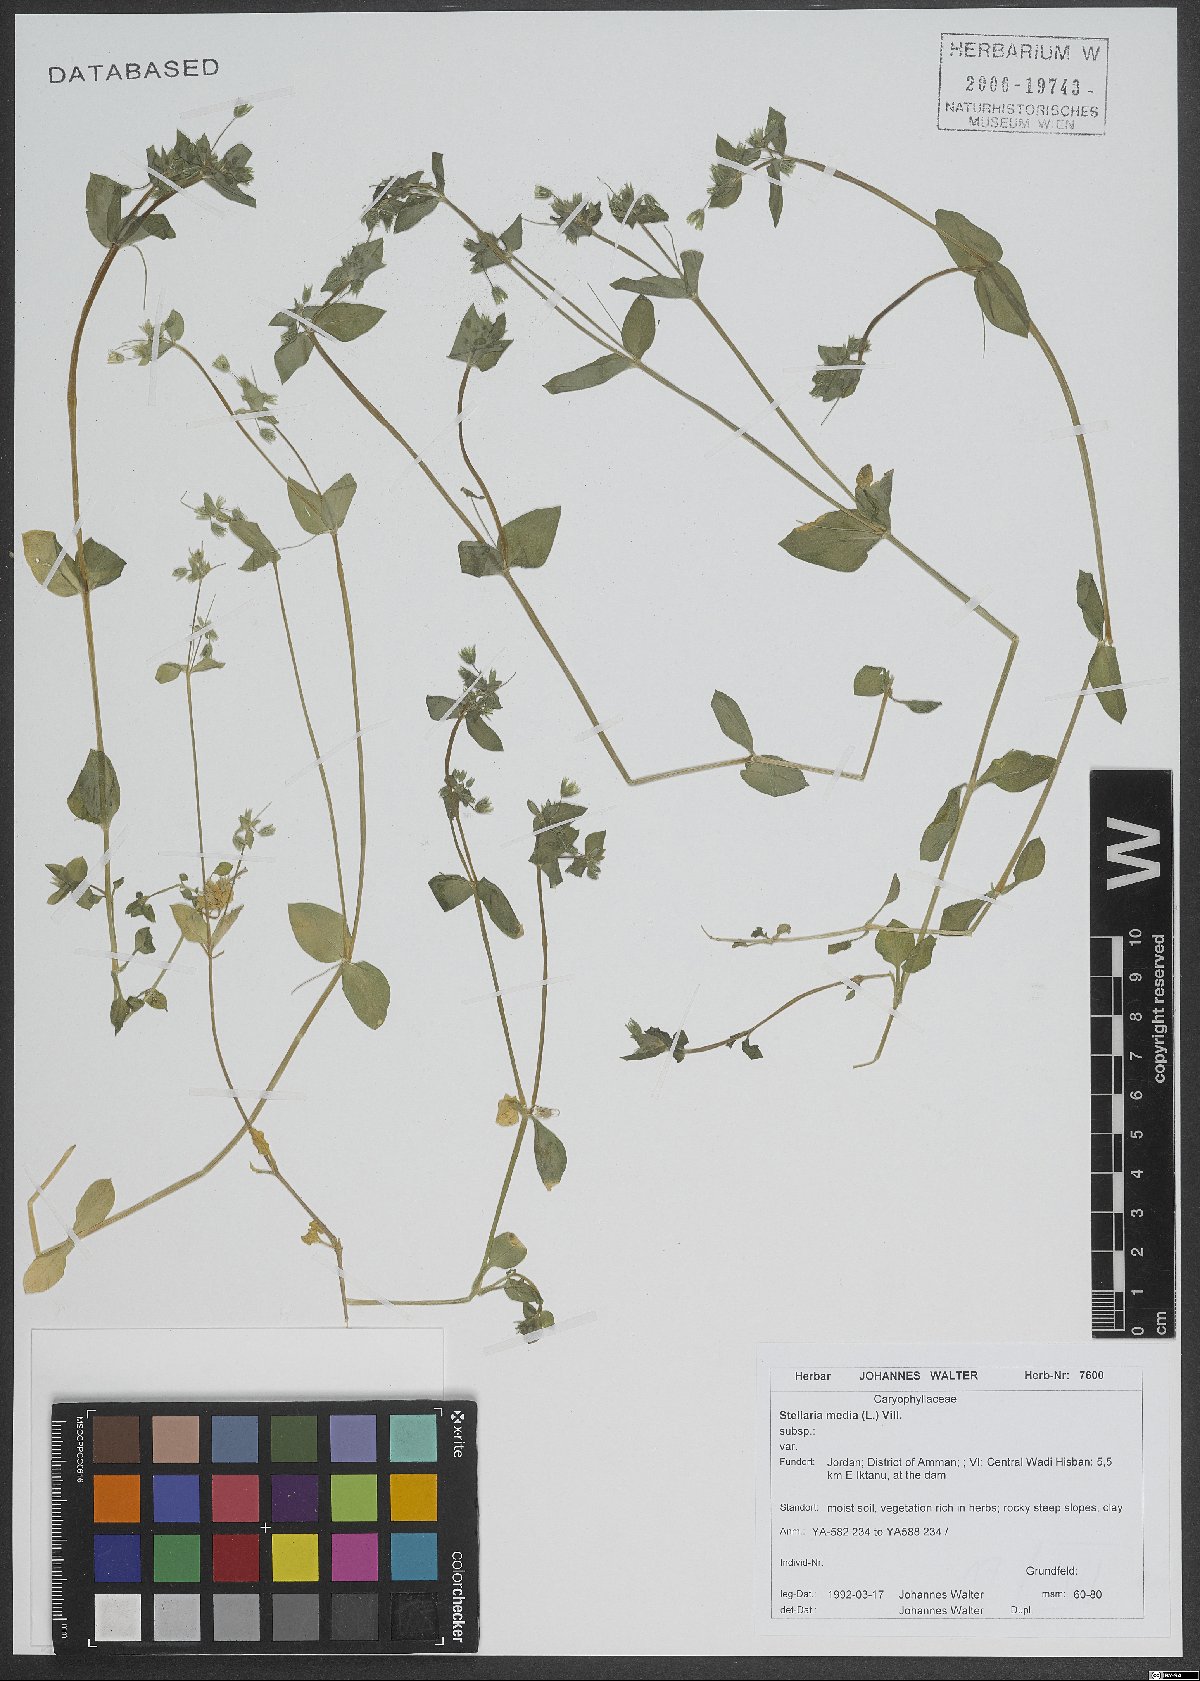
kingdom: Plantae
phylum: Tracheophyta
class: Magnoliopsida
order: Caryophyllales
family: Caryophyllaceae
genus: Stellaria
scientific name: Stellaria apetala
